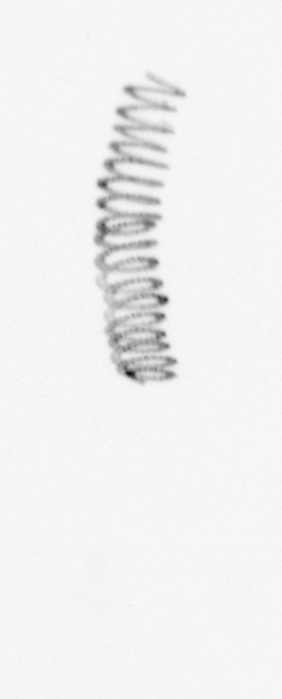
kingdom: Chromista
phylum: Ochrophyta
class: Bacillariophyceae
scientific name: Bacillariophyceae
